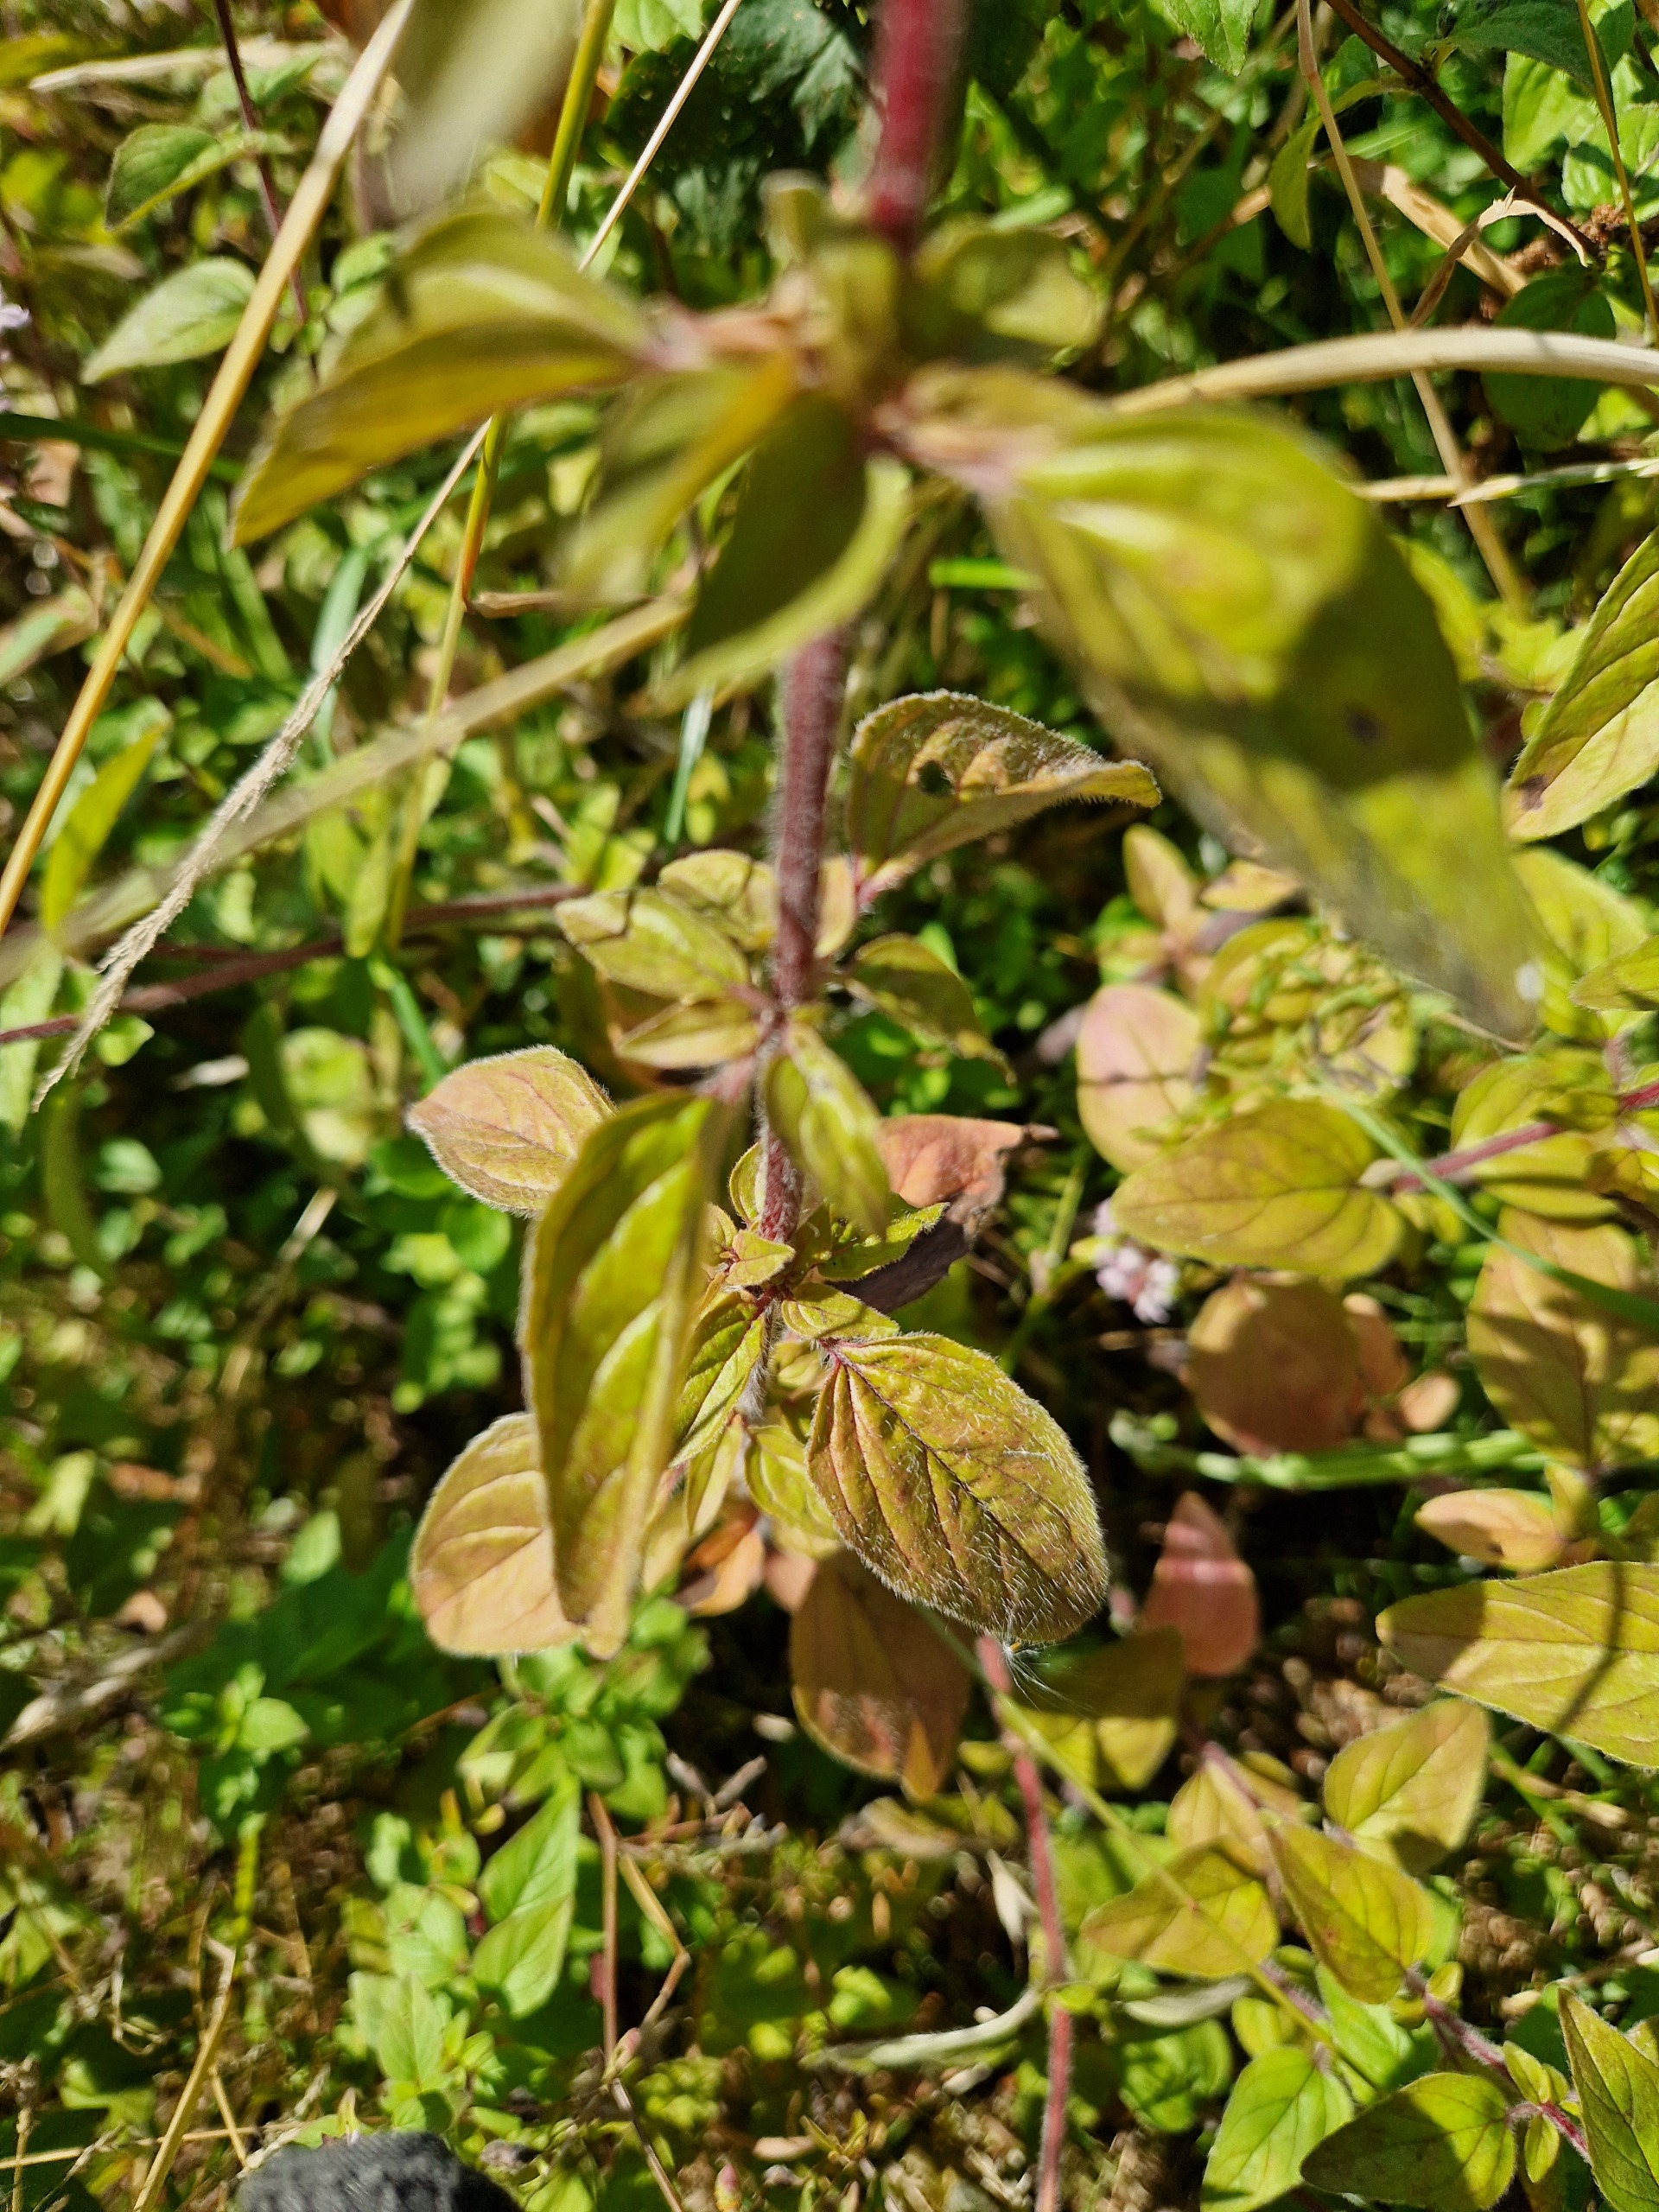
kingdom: Plantae
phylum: Tracheophyta
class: Magnoliopsida
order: Lamiales
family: Lamiaceae
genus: Origanum
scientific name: Origanum vulgare
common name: Merian
